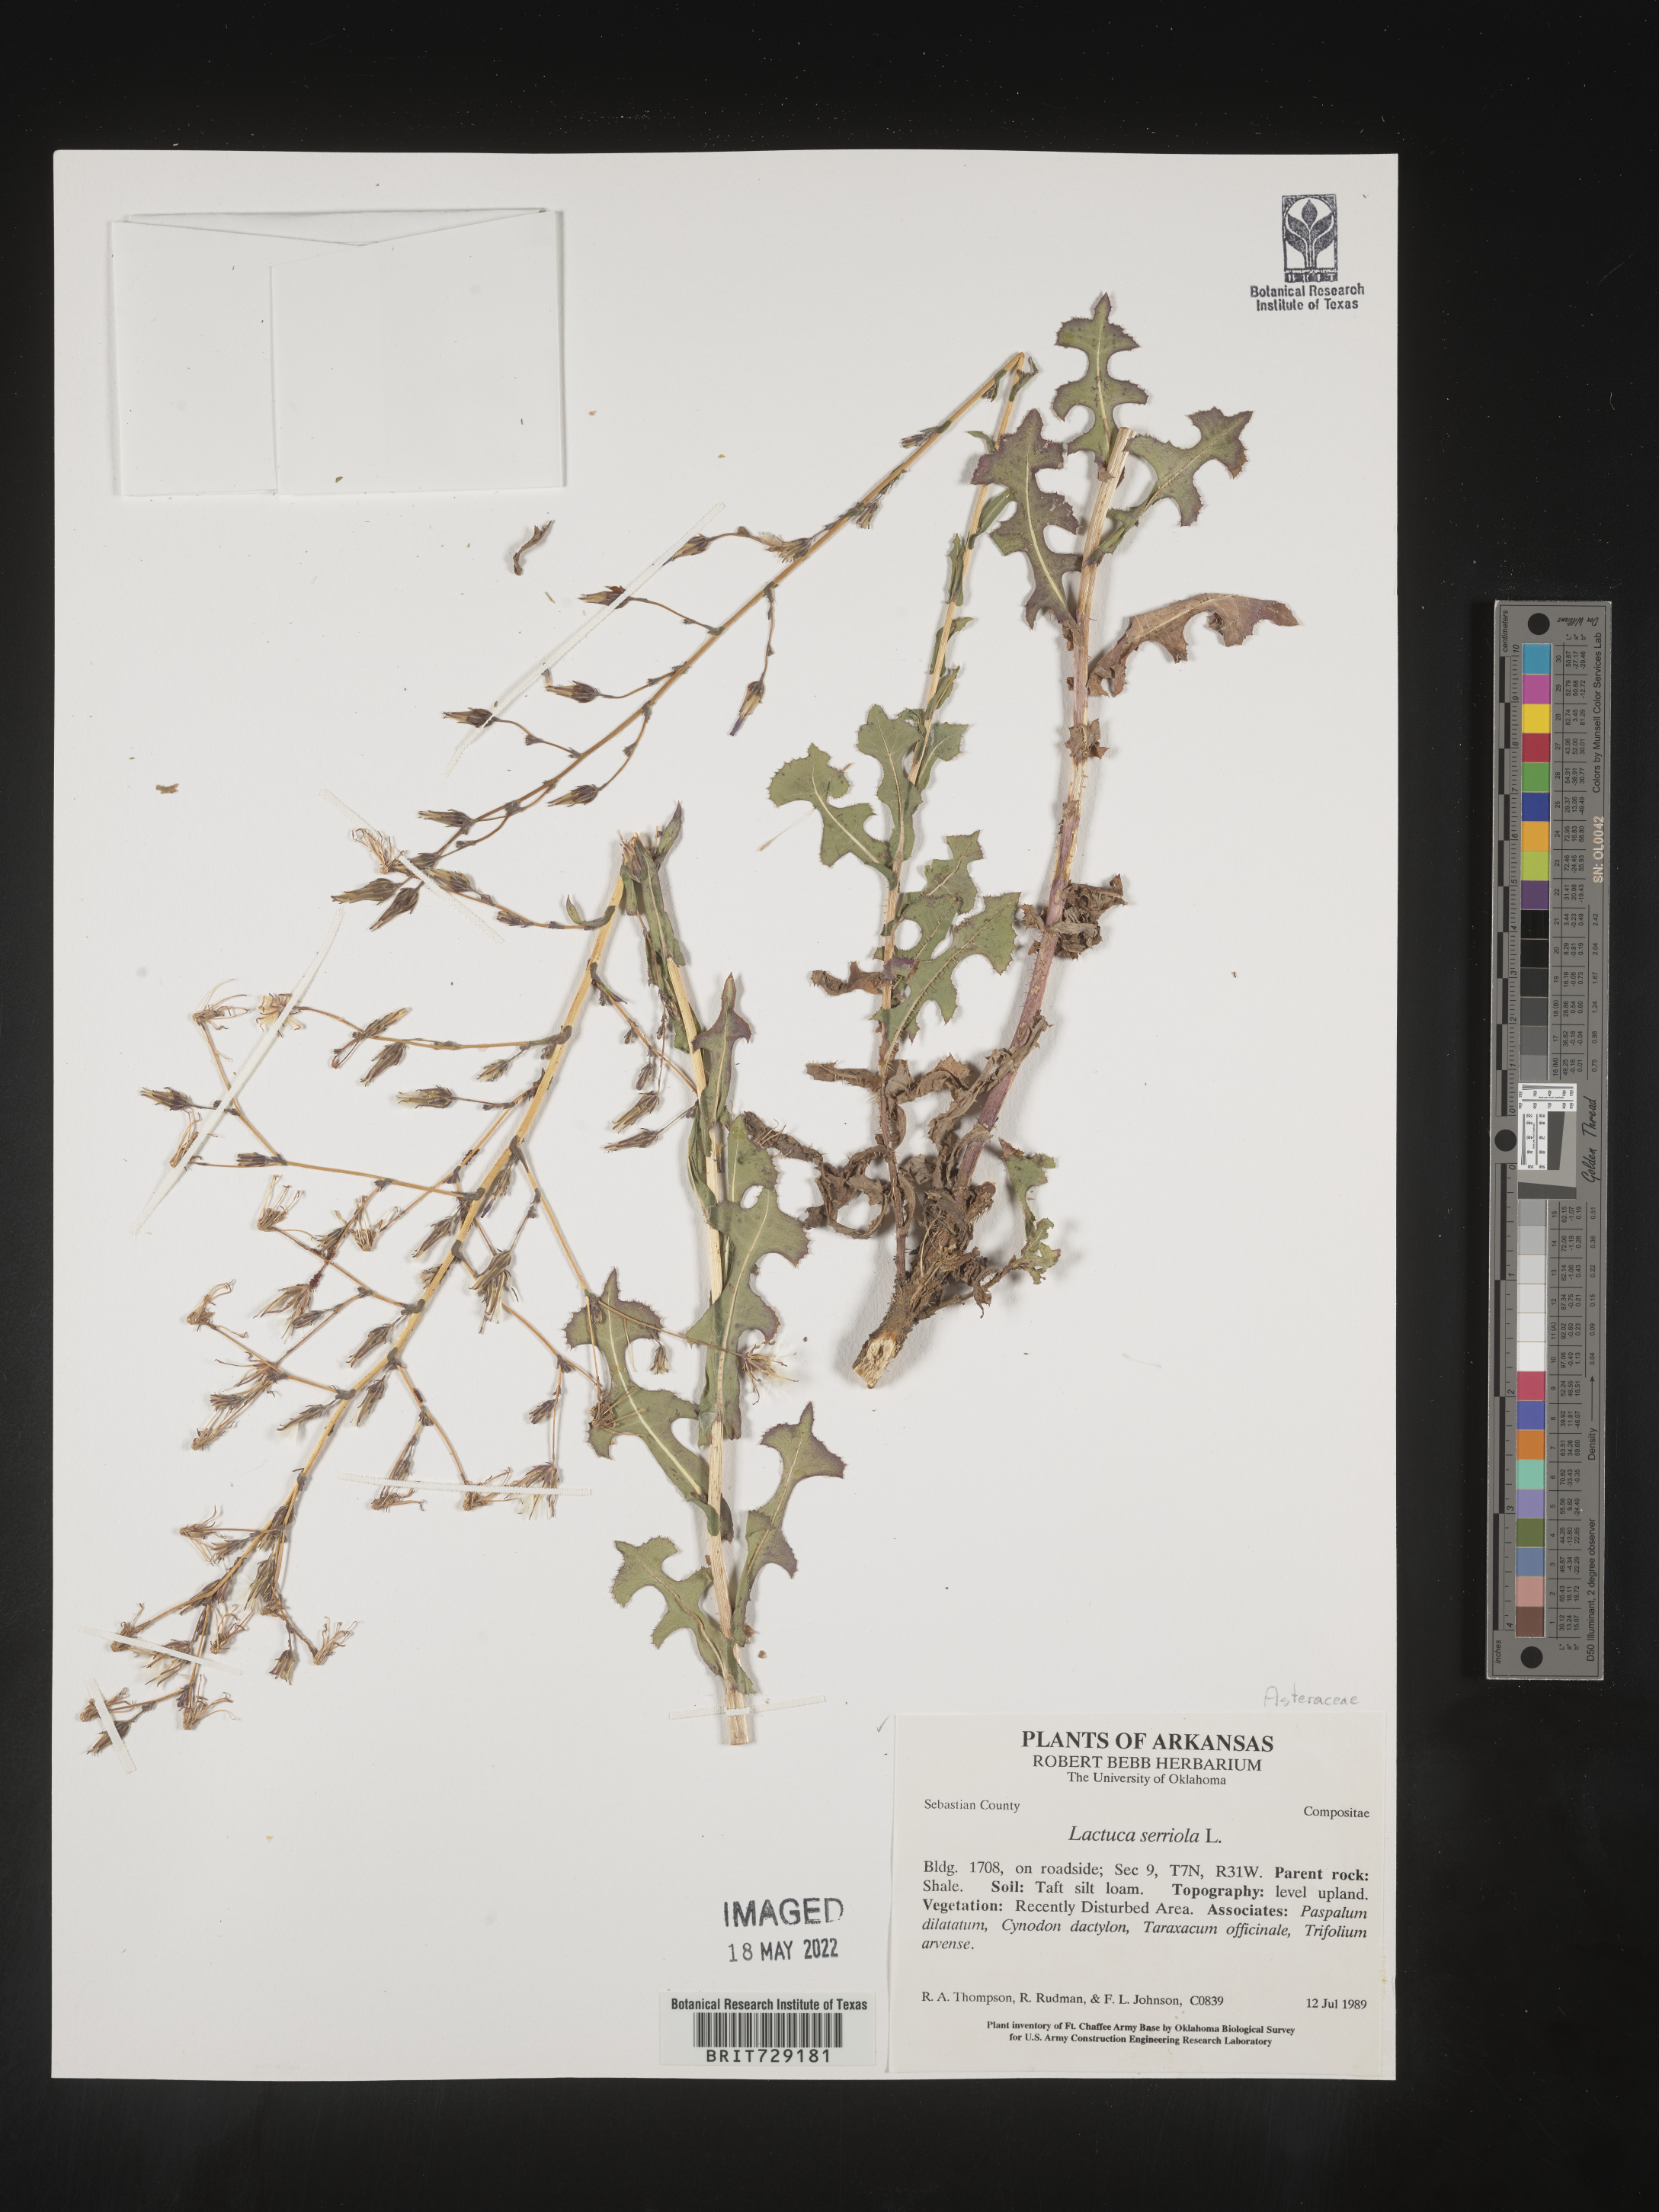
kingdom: Plantae
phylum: Tracheophyta
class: Magnoliopsida
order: Asterales
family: Asteraceae
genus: Lactuca
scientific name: Lactuca serriola
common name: Prickly lettuce
